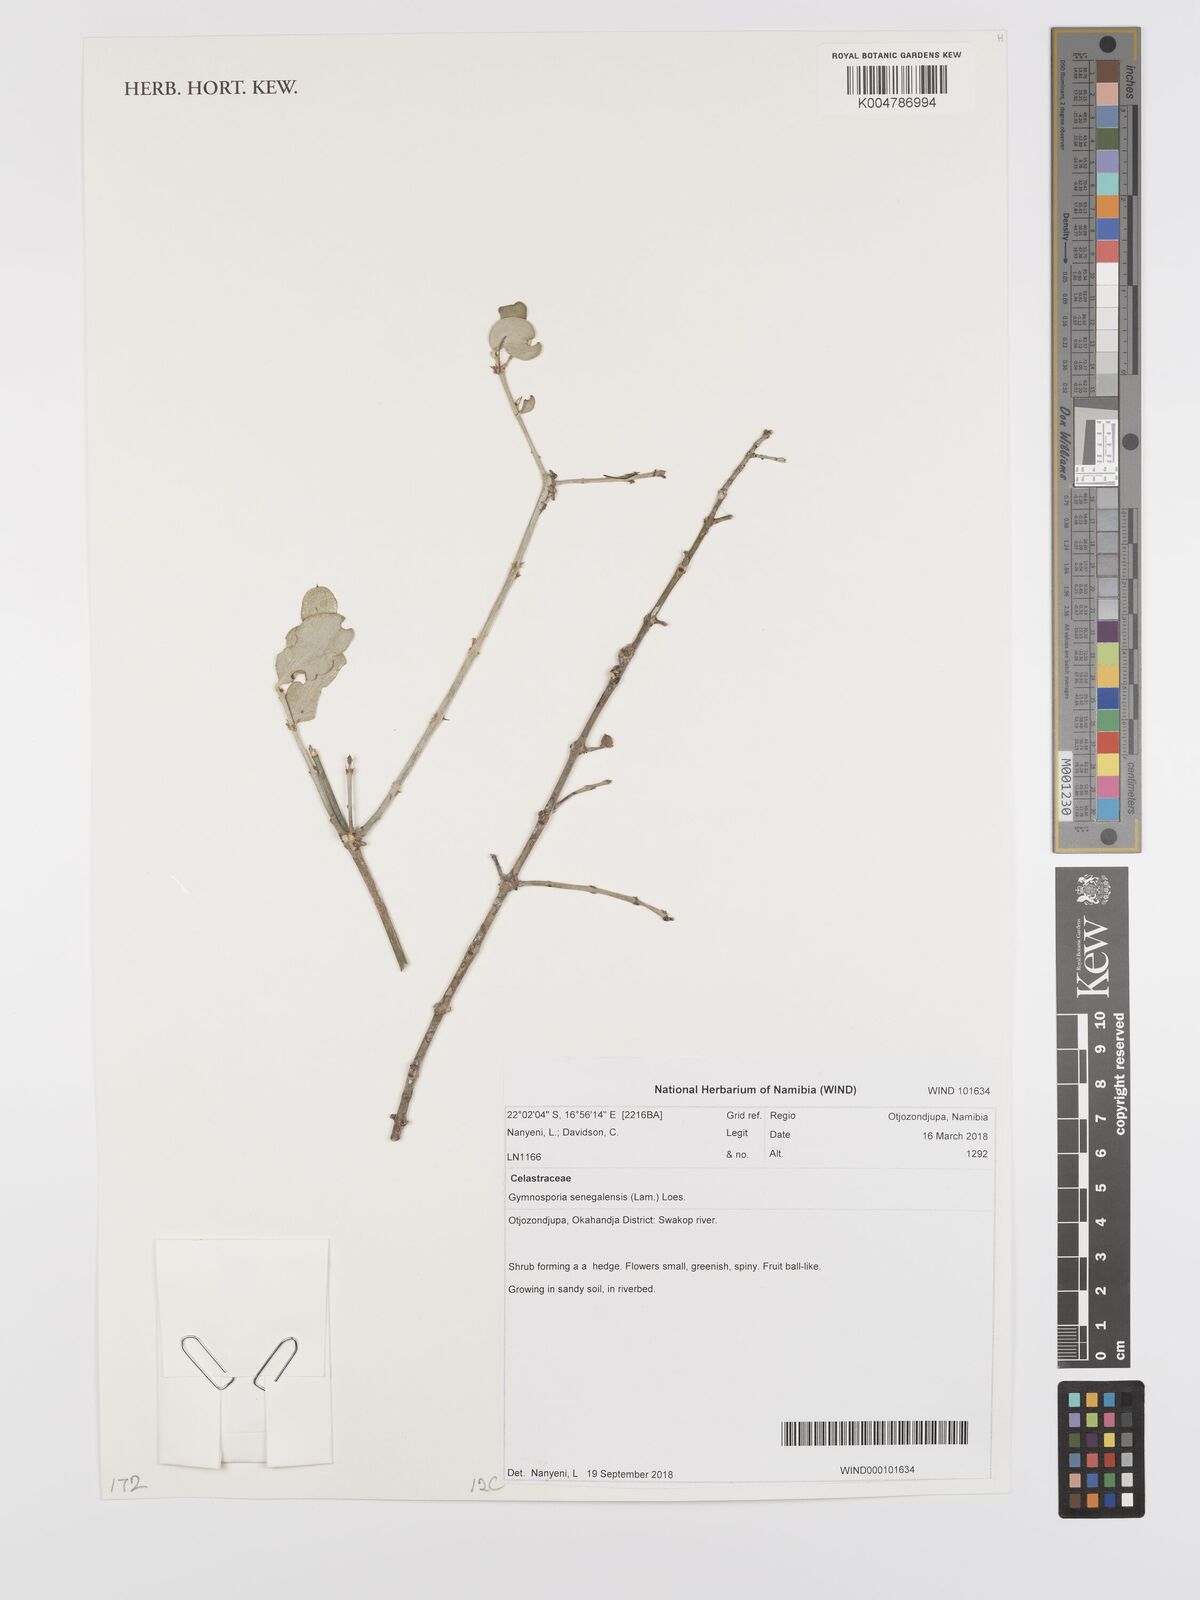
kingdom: Plantae
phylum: Tracheophyta
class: Magnoliopsida
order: Celastrales
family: Celastraceae
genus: Gymnosporia
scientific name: Gymnosporia senegalensis
